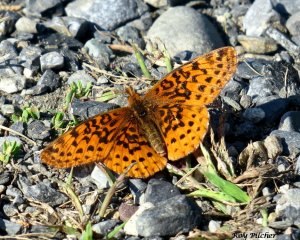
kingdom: Animalia
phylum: Arthropoda
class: Insecta
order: Lepidoptera
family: Nymphalidae
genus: Clossiana
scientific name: Clossiana toddi
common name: Meadow Fritillary
